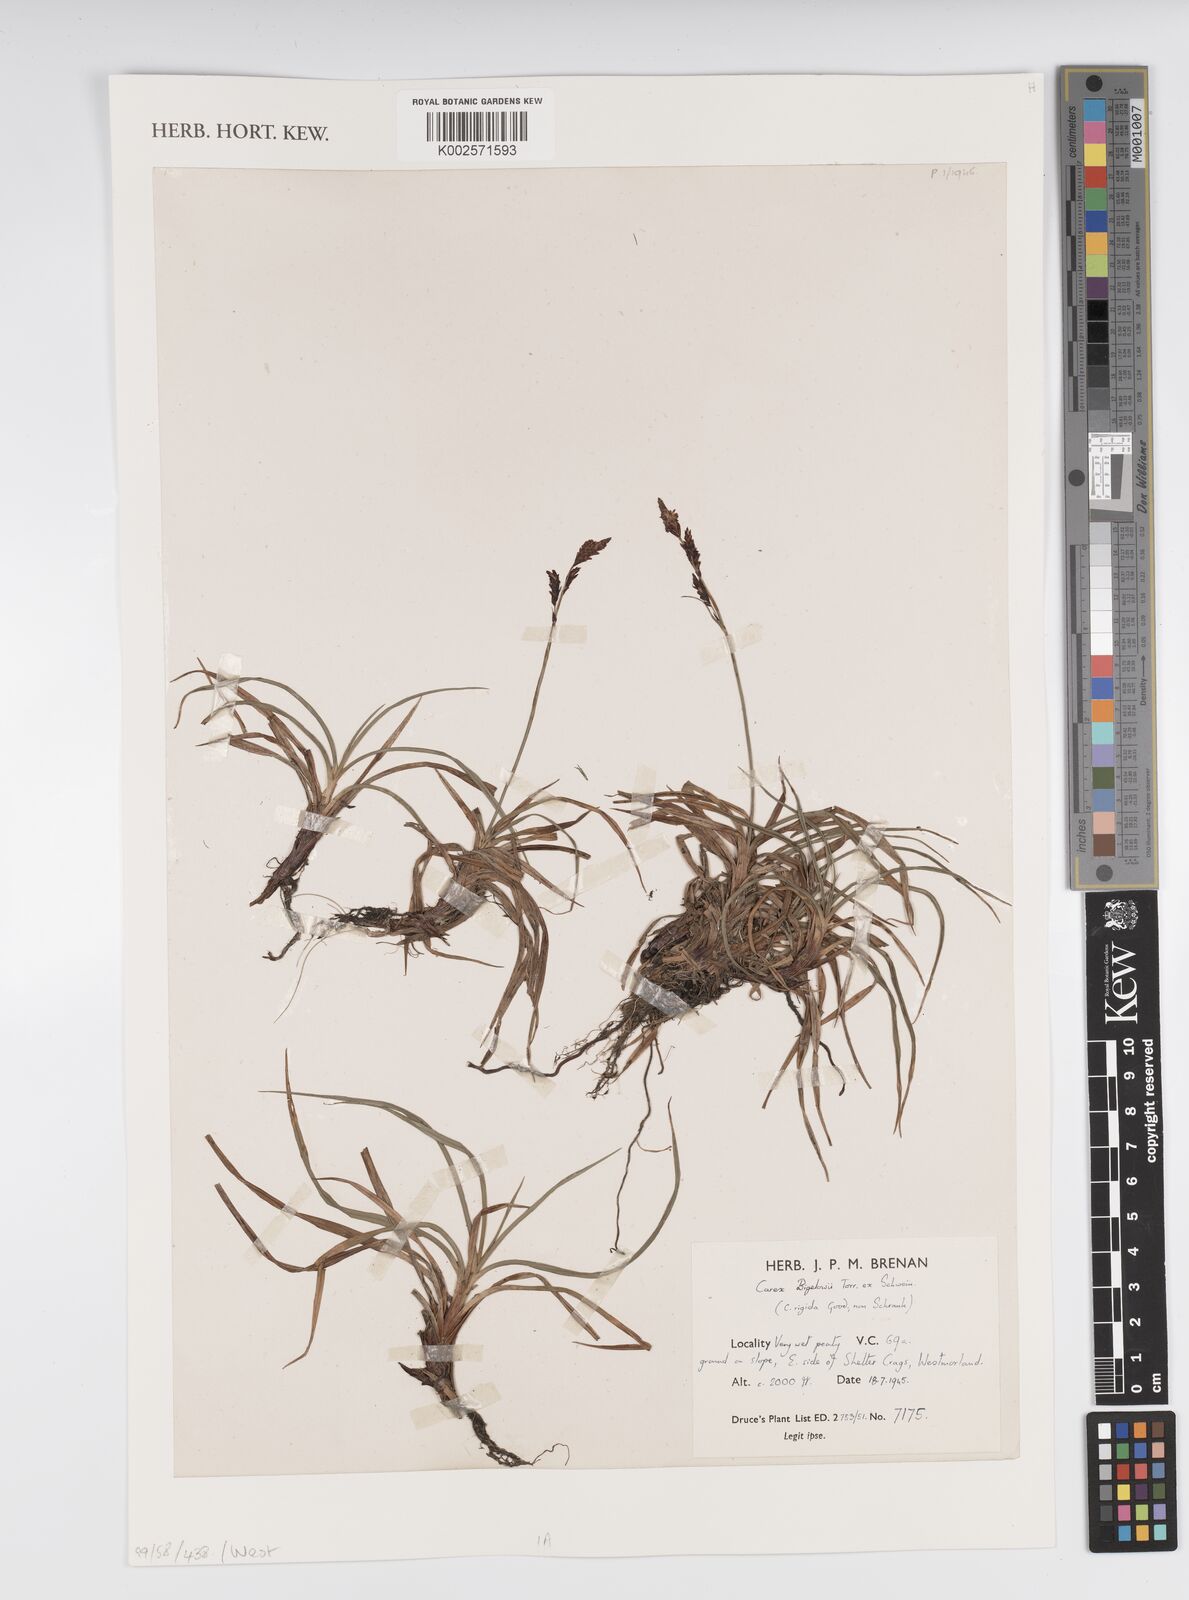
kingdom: Plantae
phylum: Tracheophyta
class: Liliopsida
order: Poales
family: Cyperaceae
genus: Carex
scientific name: Carex caryophyllea
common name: Spring sedge
